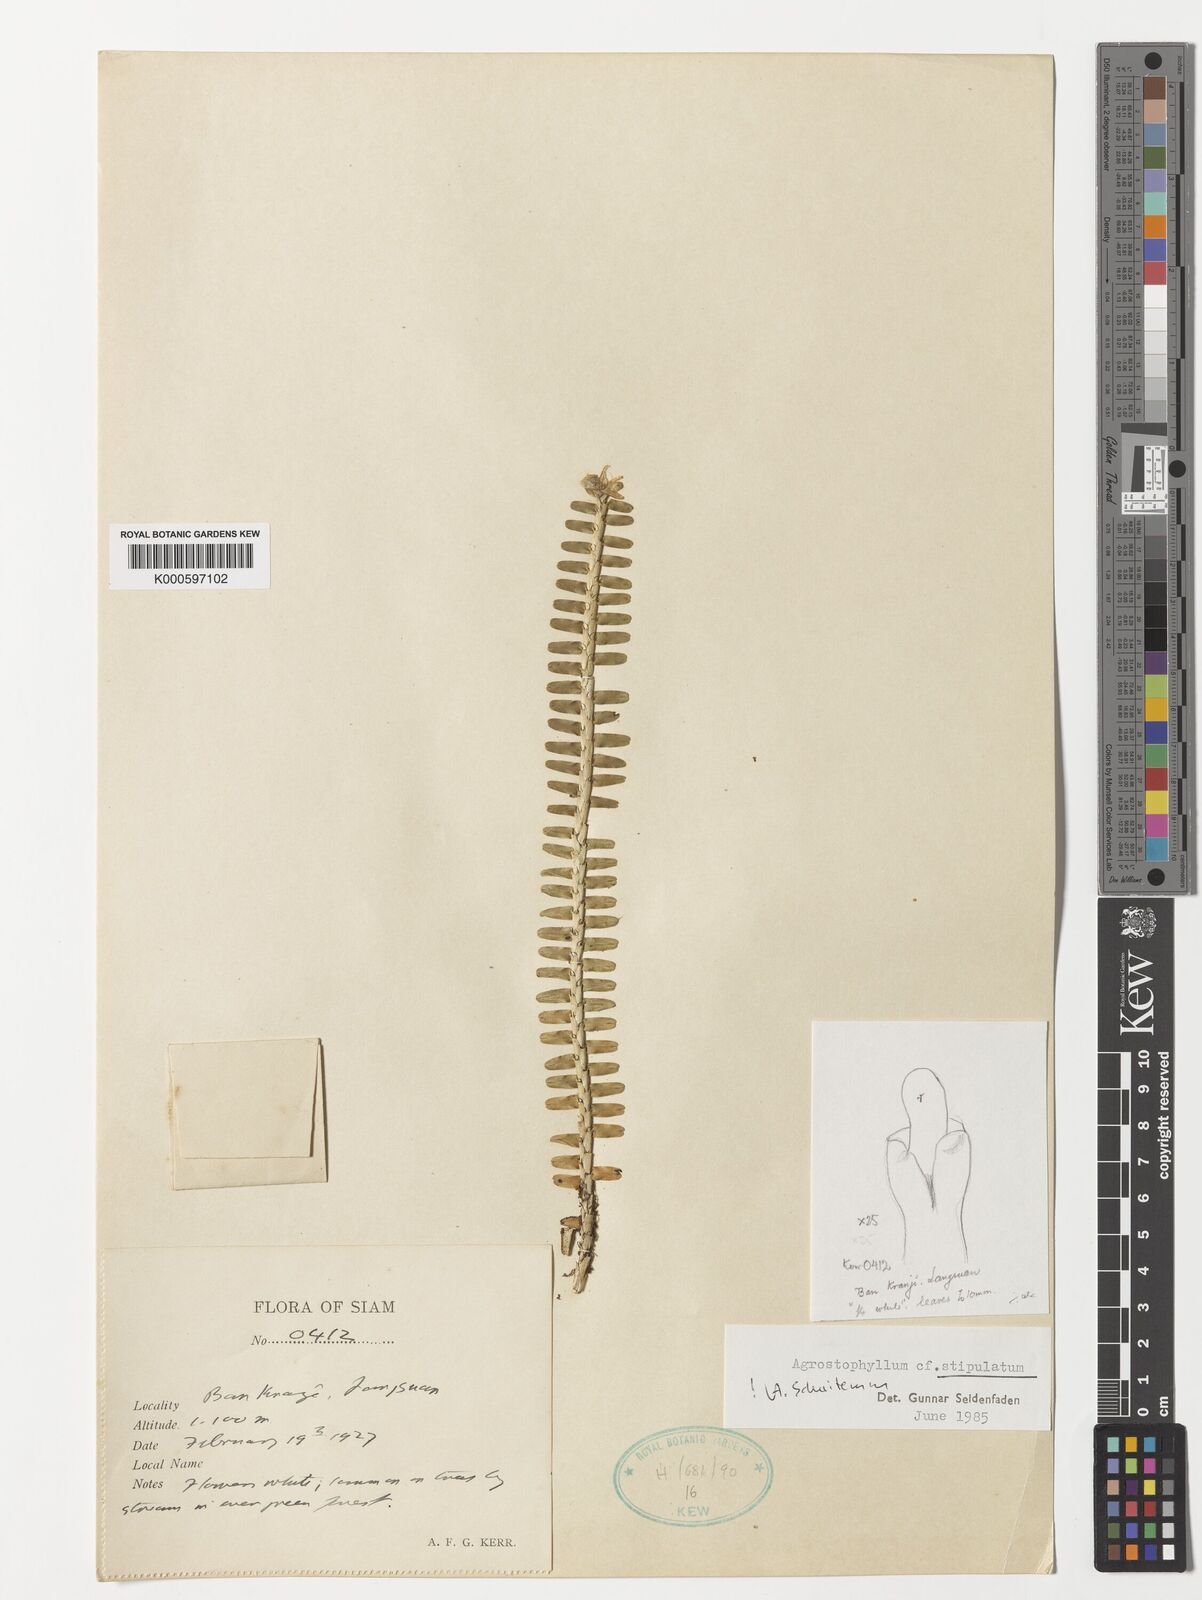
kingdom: Plantae
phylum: Tracheophyta
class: Liliopsida
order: Asparagales
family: Orchidaceae
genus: Agrostophyllum
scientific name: Agrostophyllum stipulatum
